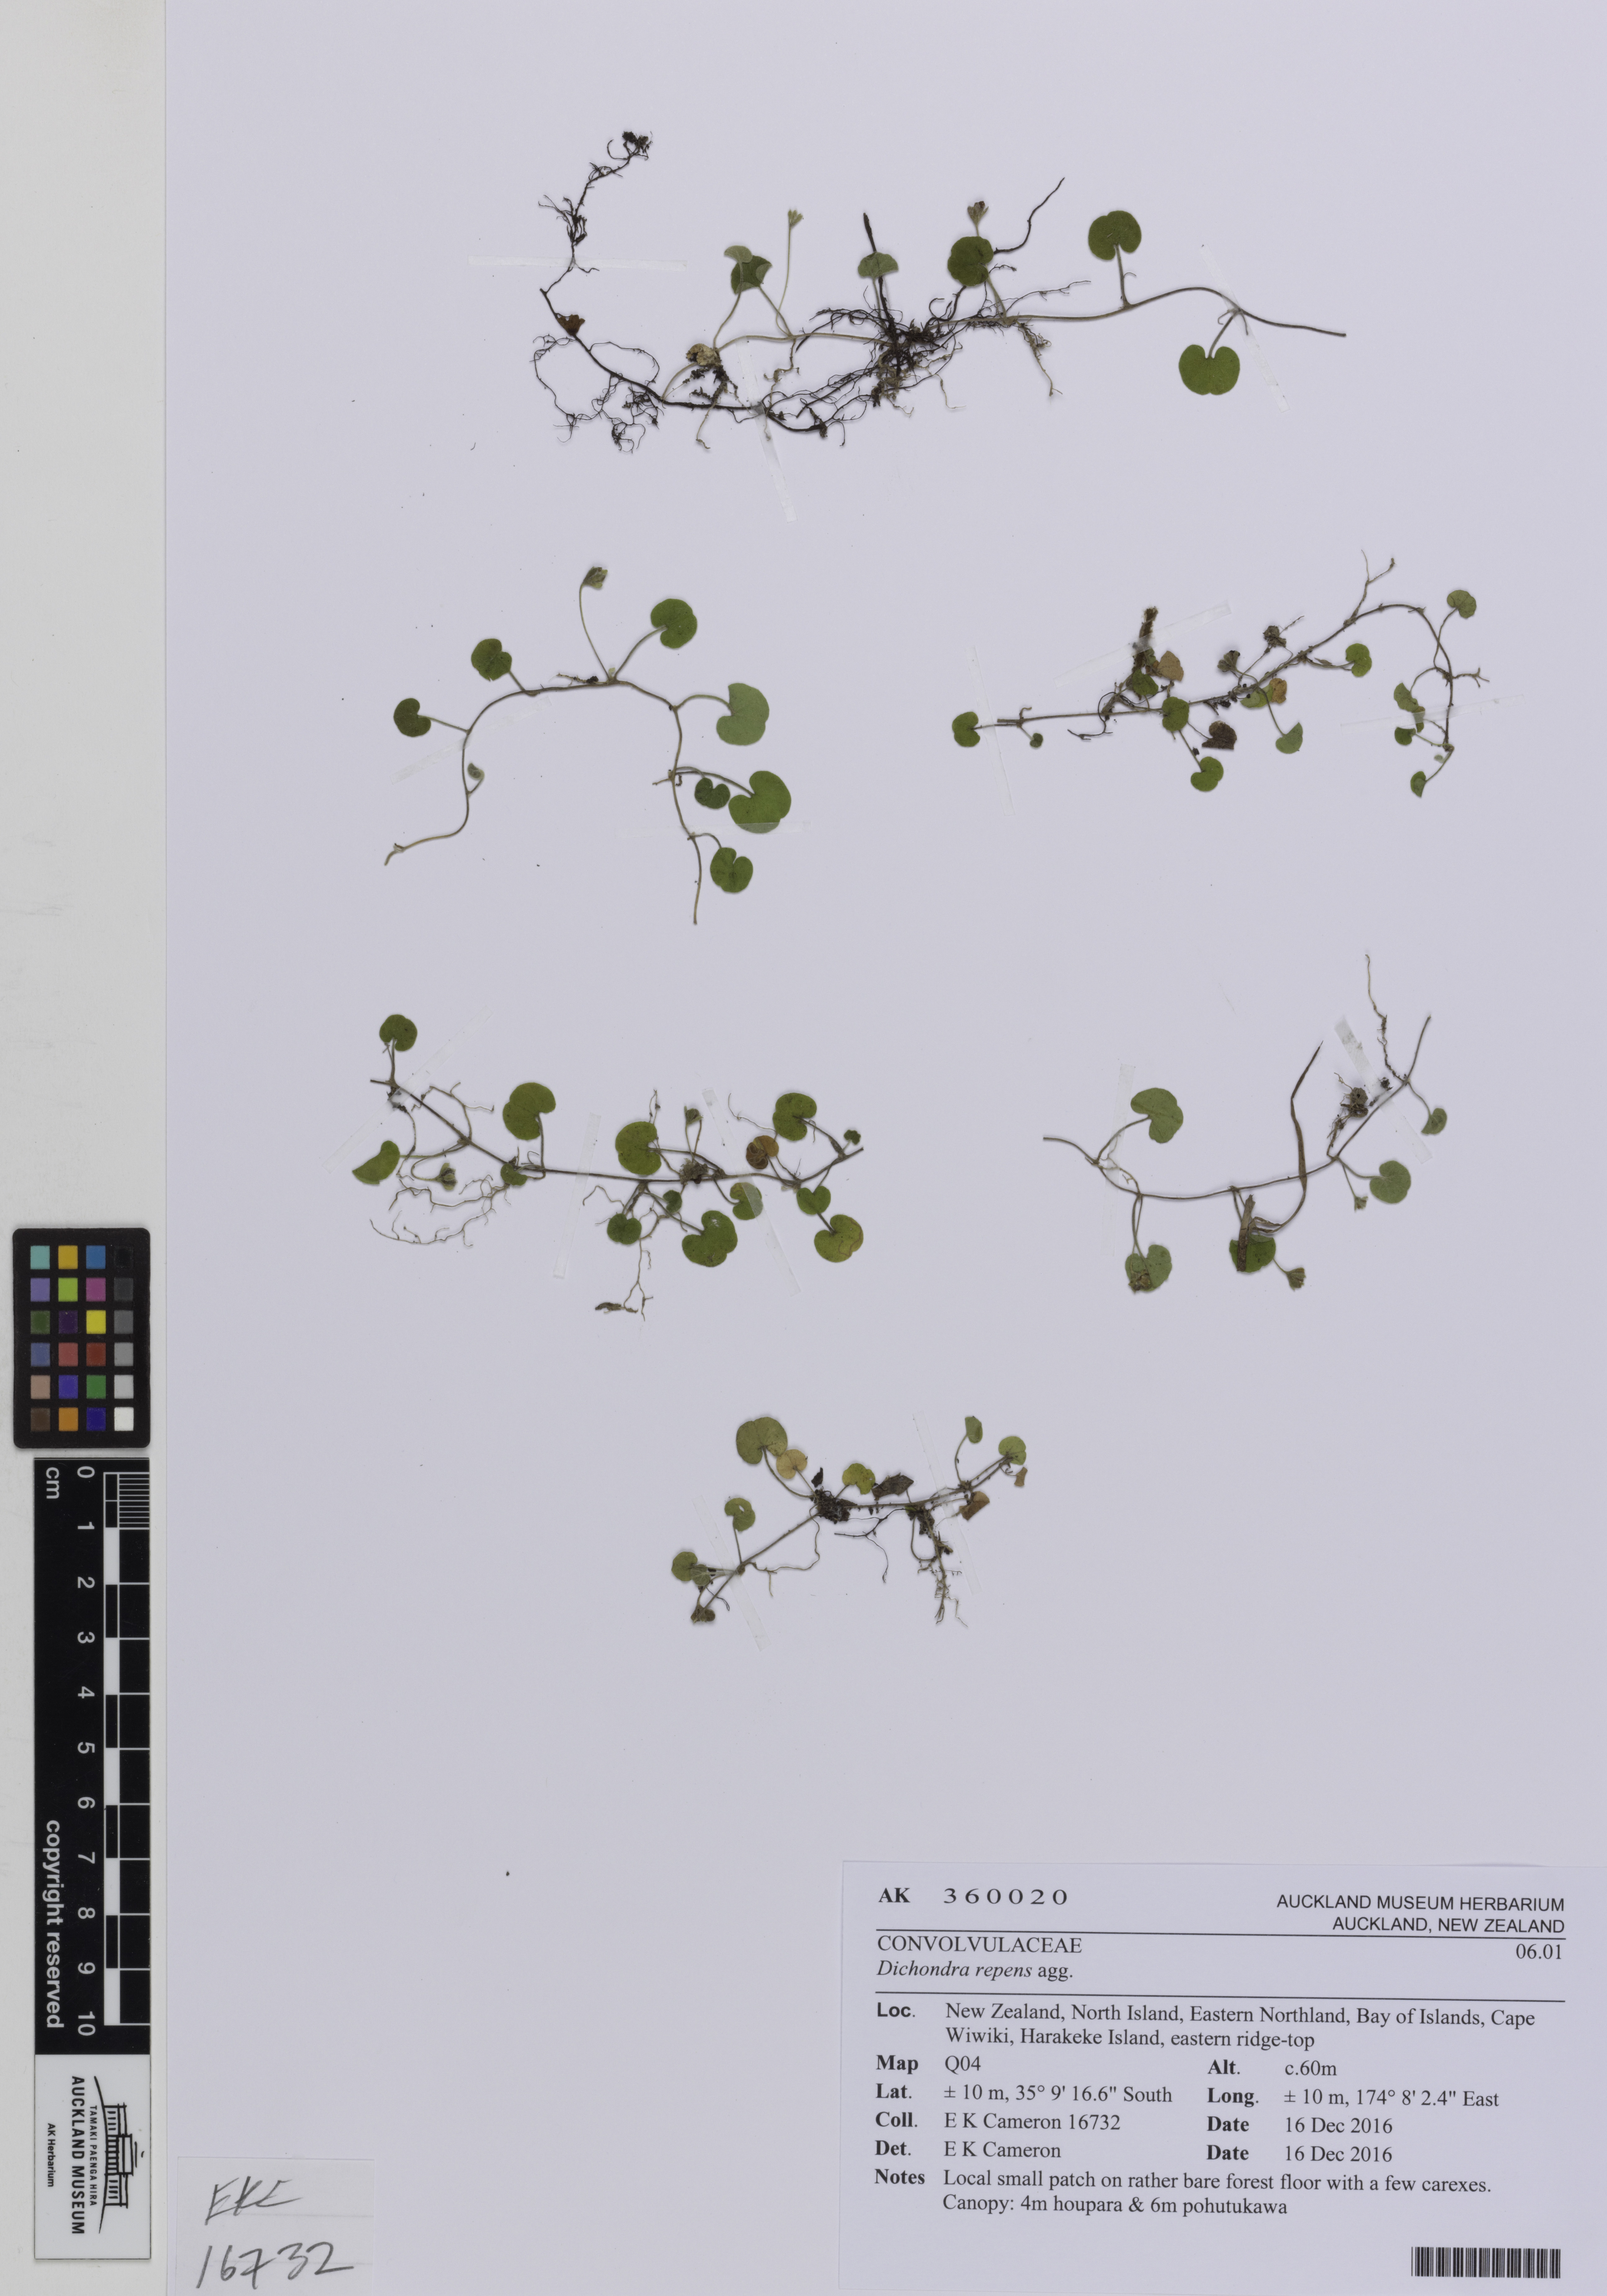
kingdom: Plantae
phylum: Tracheophyta
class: Magnoliopsida
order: Solanales
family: Convolvulaceae
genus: Dichondra
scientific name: Dichondra repens
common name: Kidneyweed
